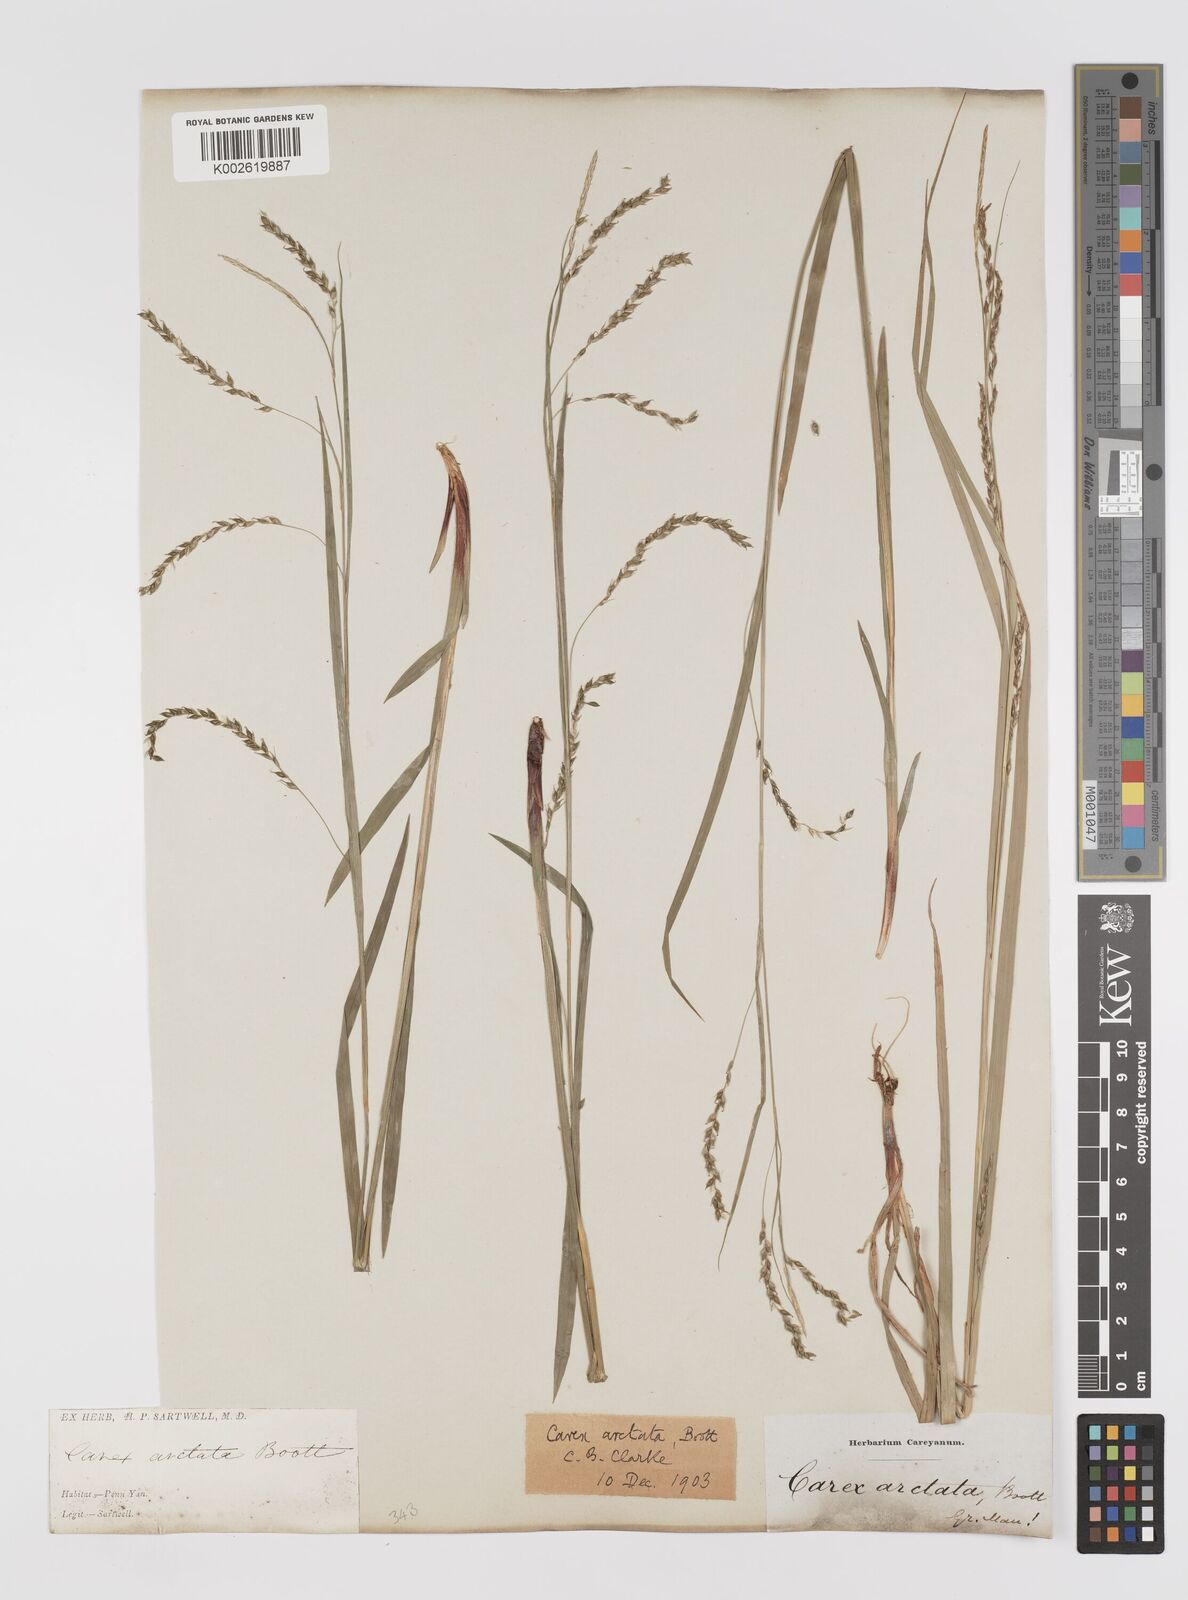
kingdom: Plantae
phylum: Tracheophyta
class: Liliopsida
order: Poales
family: Cyperaceae
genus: Carex
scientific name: Carex arctata
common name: Black sedge
